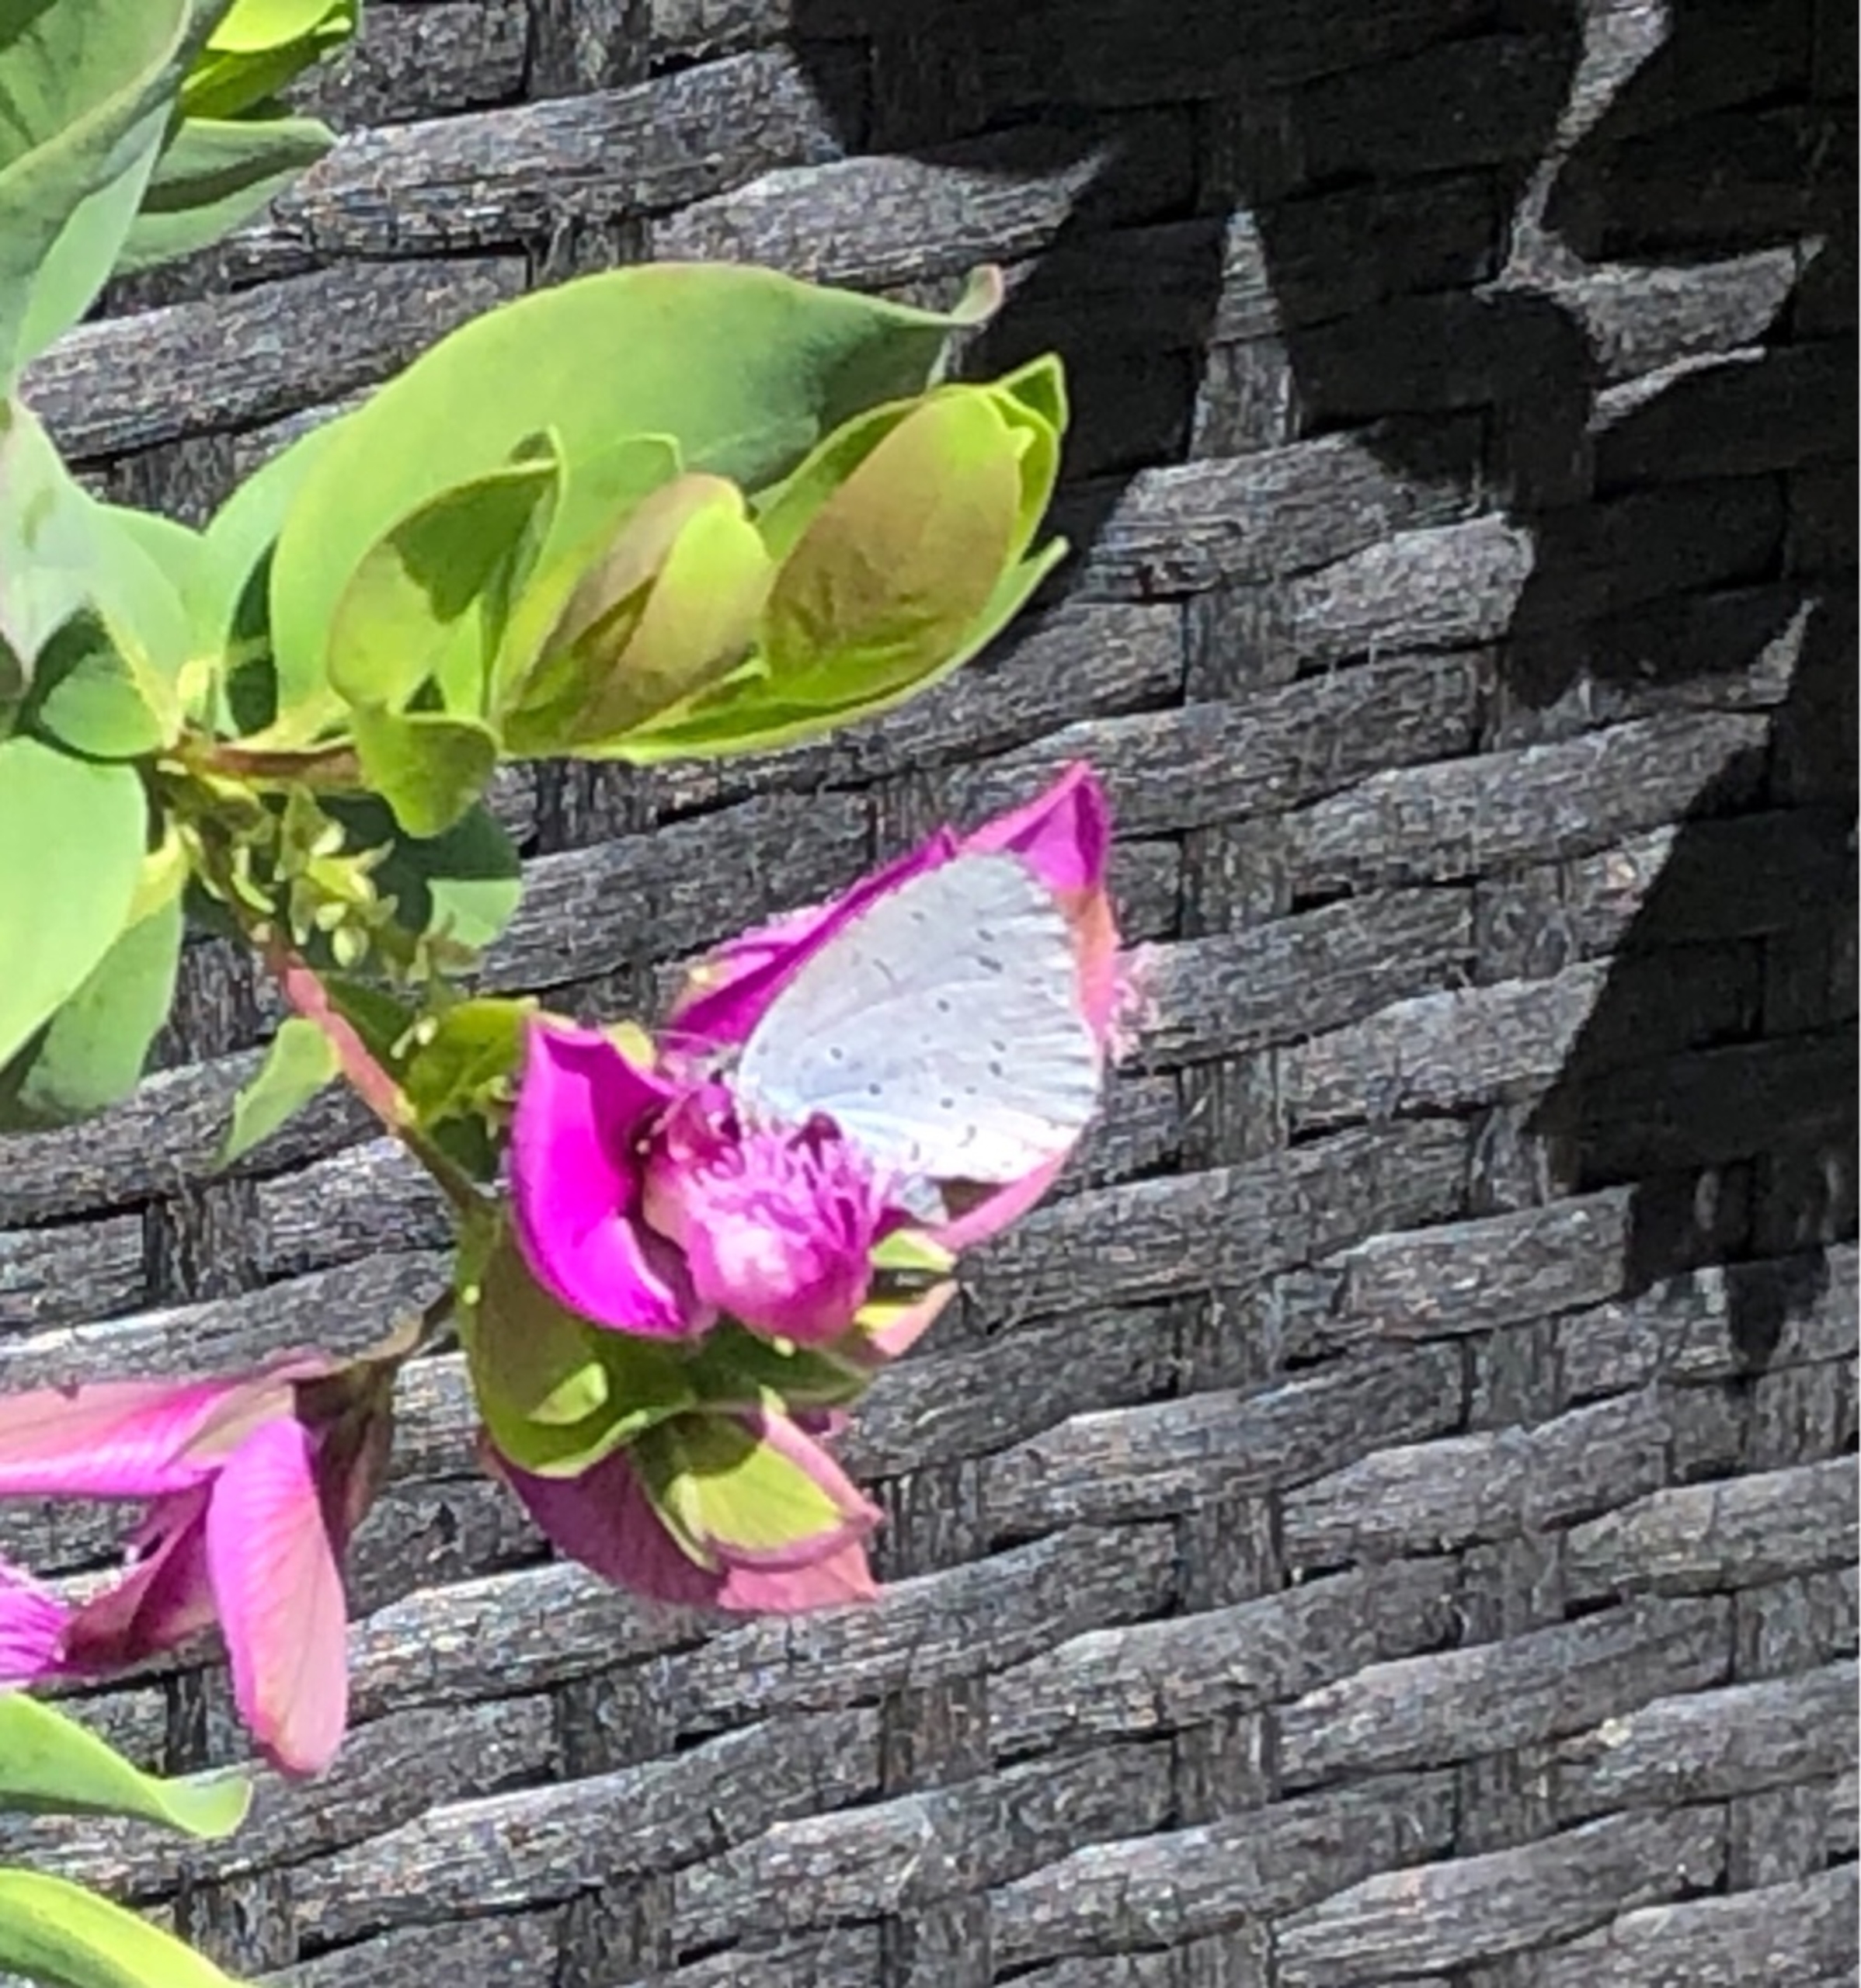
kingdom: Animalia
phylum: Arthropoda
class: Insecta
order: Lepidoptera
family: Lycaenidae
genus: Celastrina
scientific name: Celastrina argiolus
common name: Skovblåfugl
